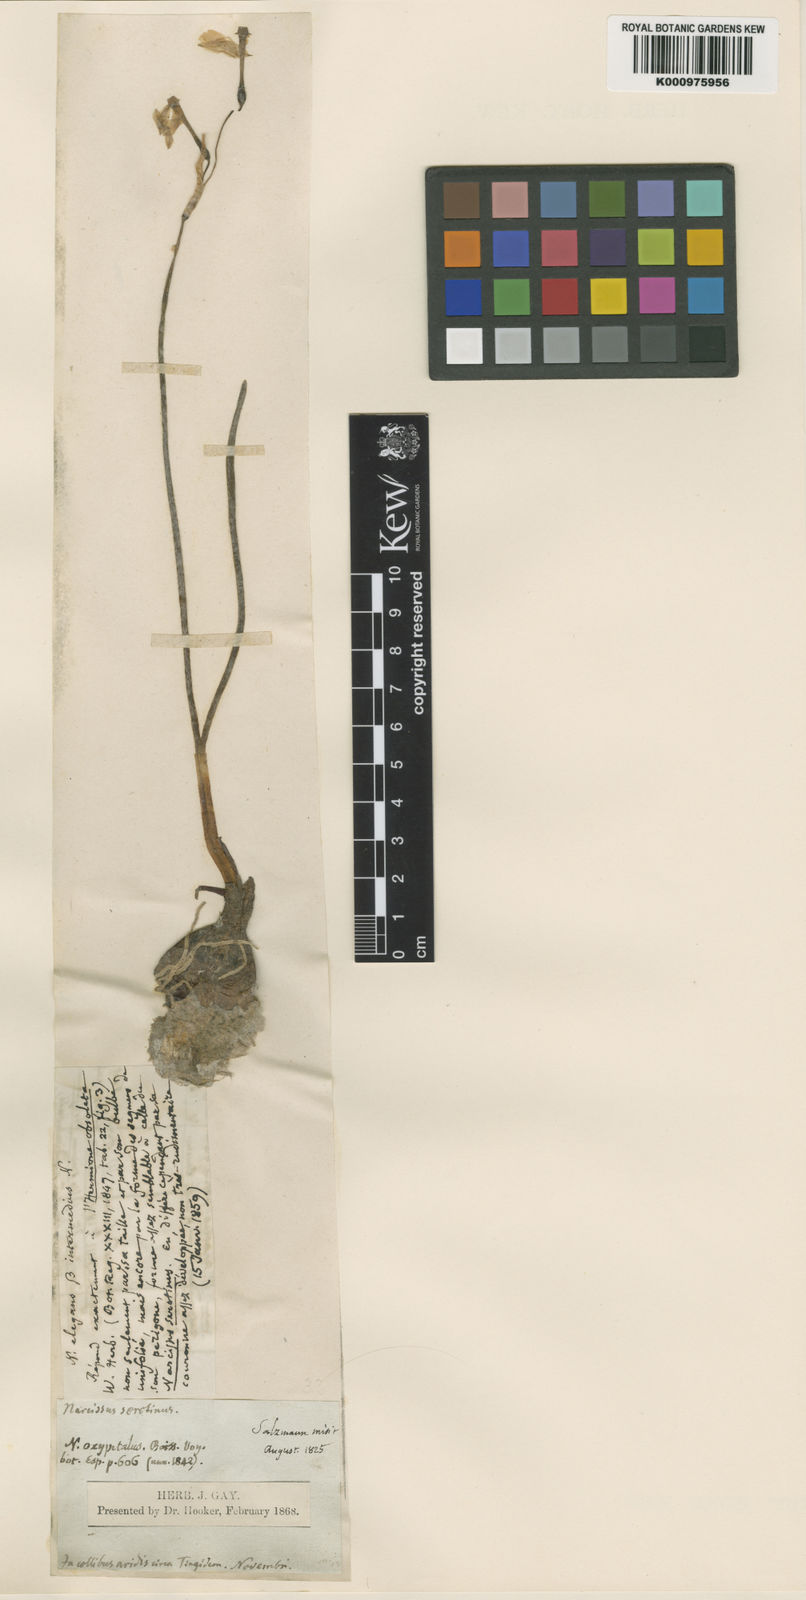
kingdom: Plantae
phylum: Tracheophyta
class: Liliopsida
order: Asparagales
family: Amaryllidaceae
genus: Narcissus
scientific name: Narcissus obsoletus
